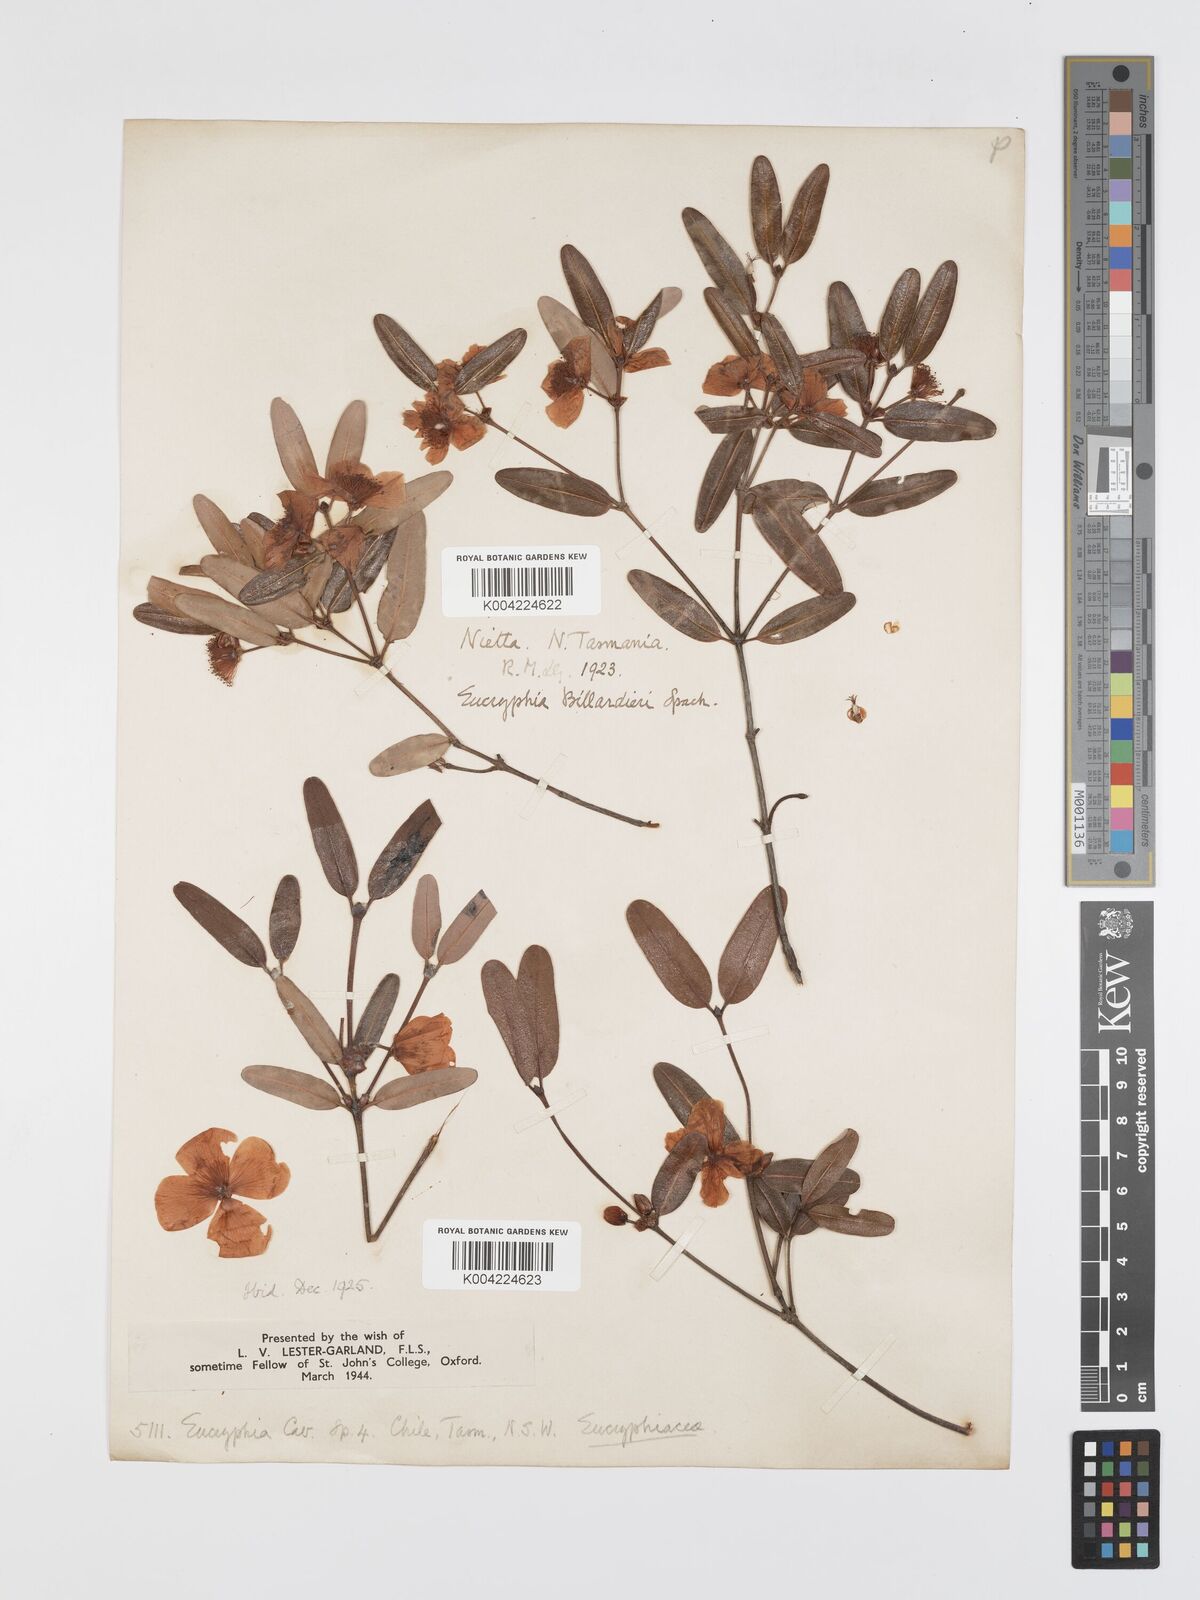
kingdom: Plantae
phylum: Tracheophyta
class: Magnoliopsida
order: Oxalidales
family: Cunoniaceae
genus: Eucryphia
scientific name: Eucryphia lucida
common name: Leatherwood
